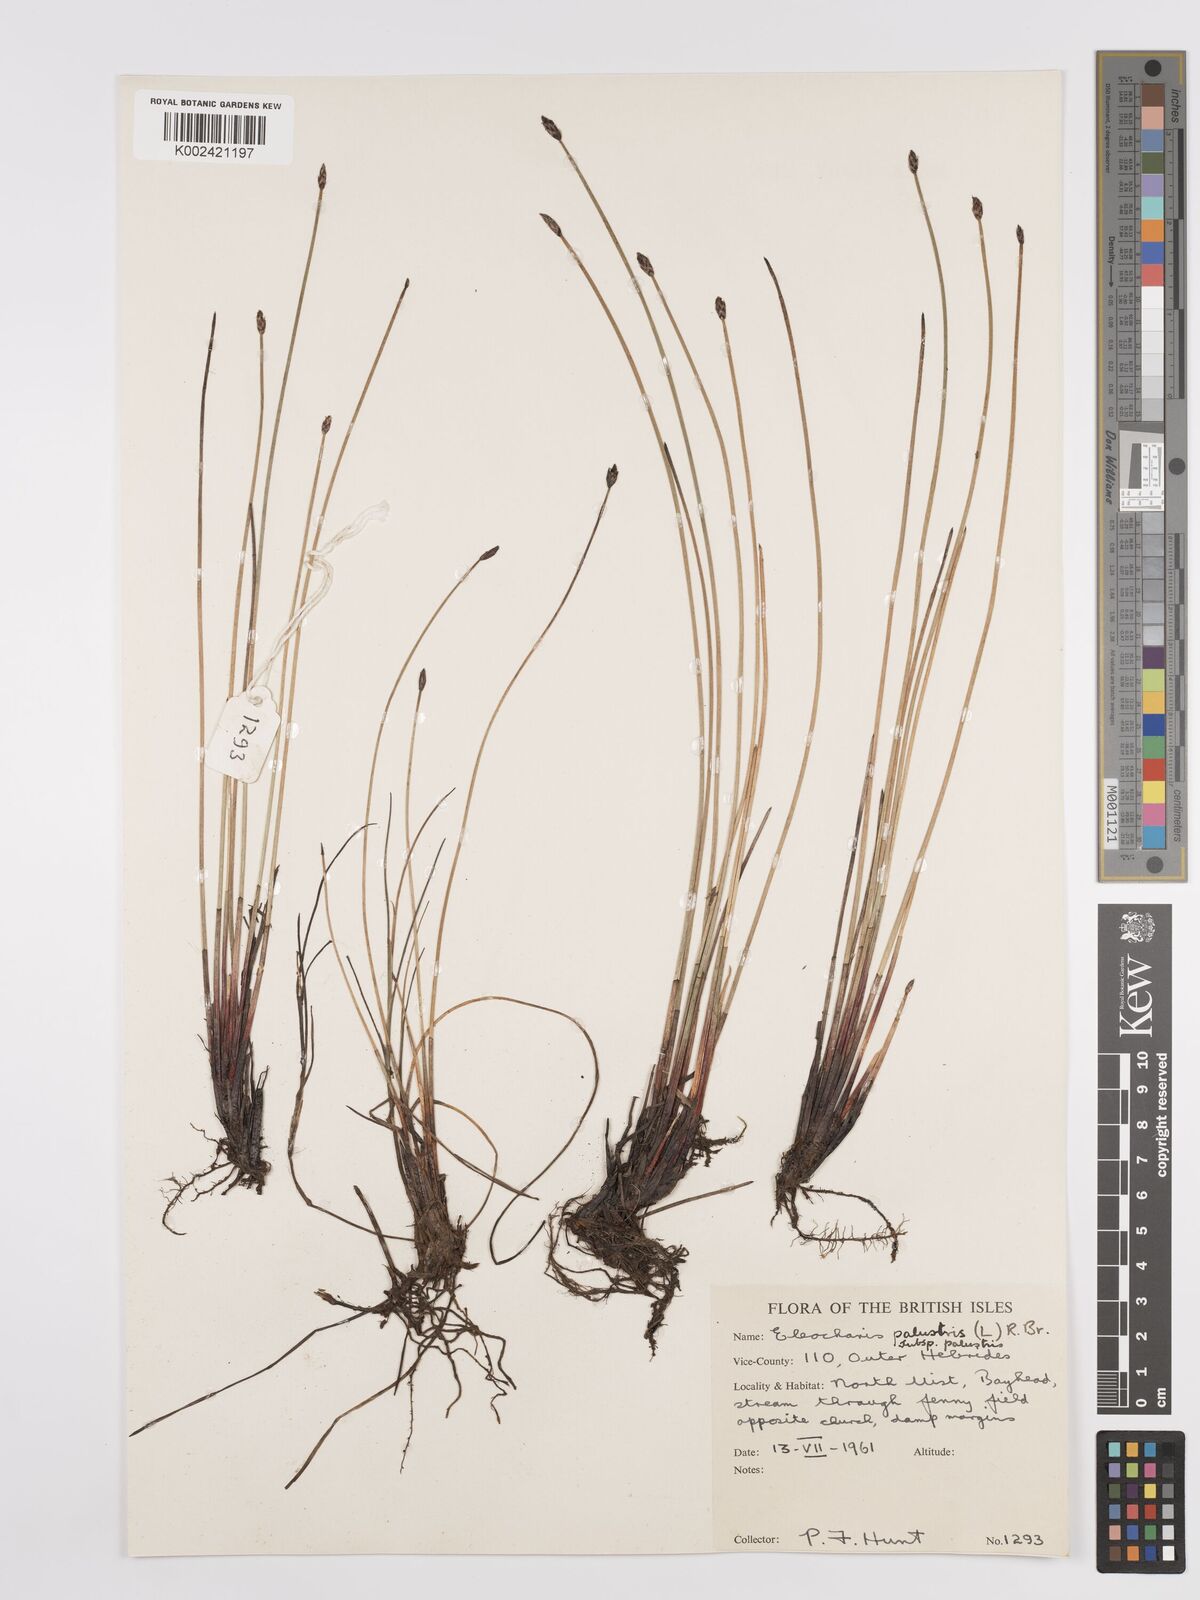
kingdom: Plantae
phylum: Tracheophyta
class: Liliopsida
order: Poales
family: Cyperaceae
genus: Eleocharis
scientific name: Eleocharis palustris
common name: Common spike-rush
